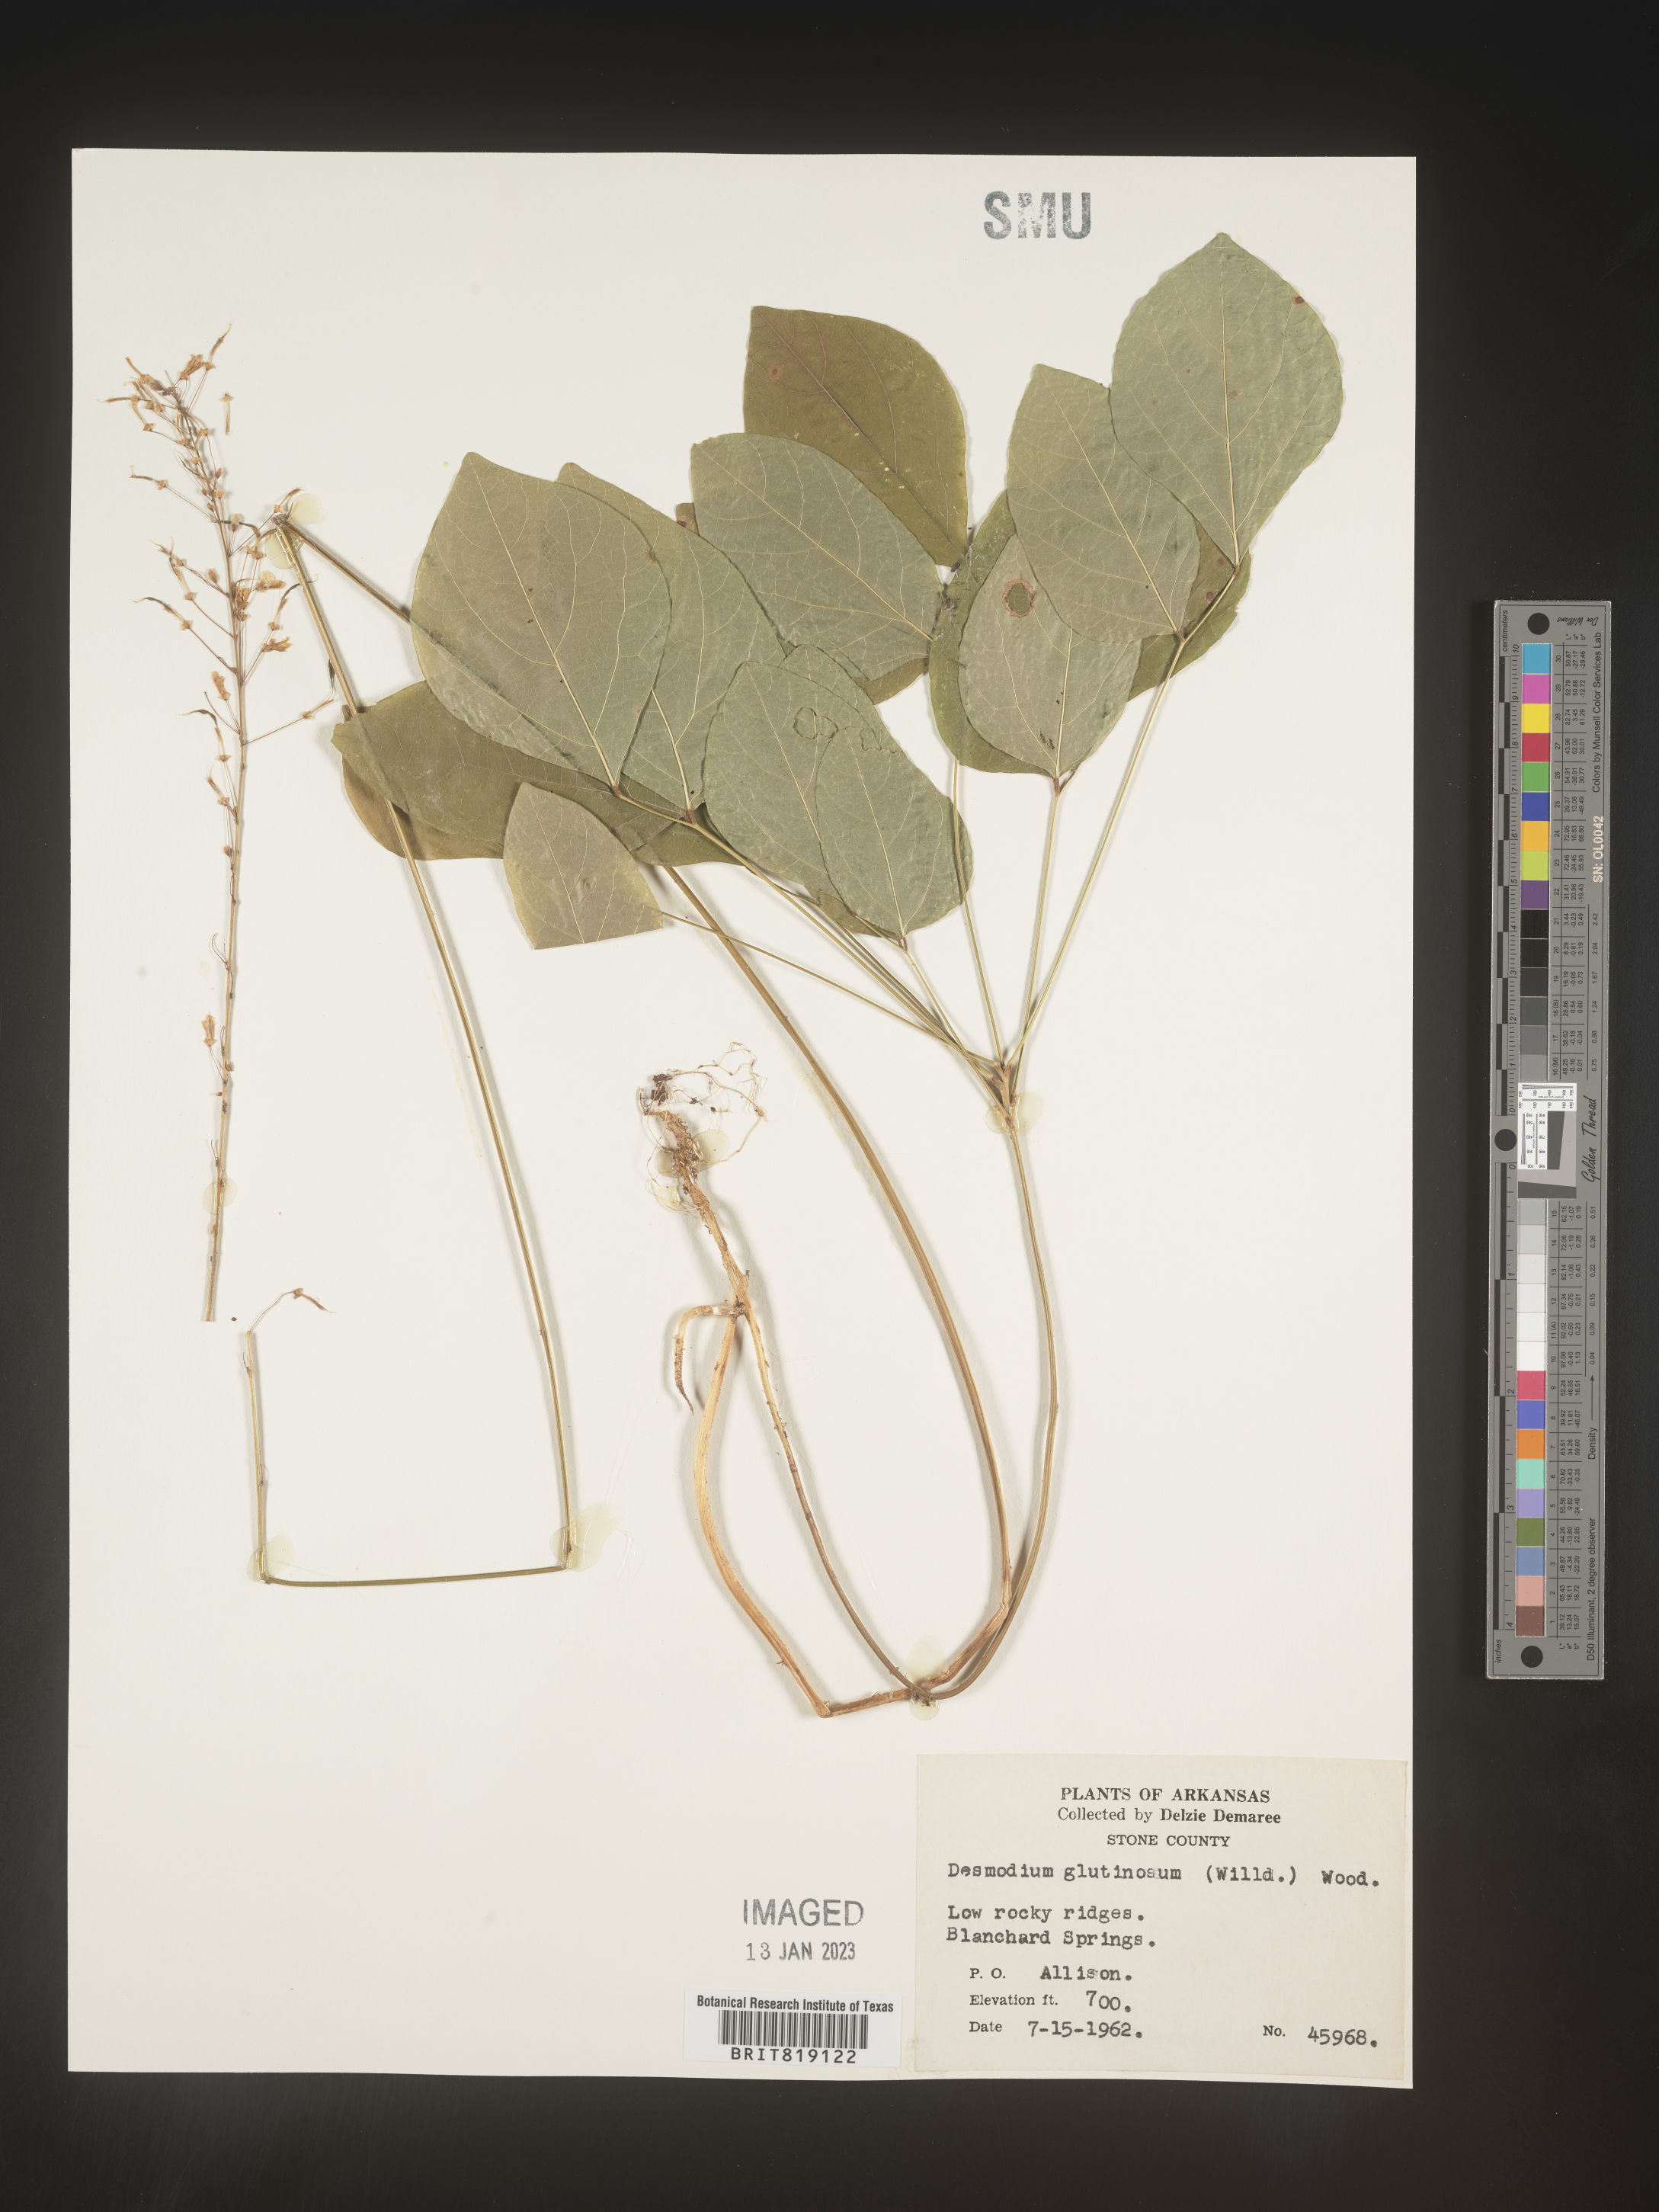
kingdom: Plantae
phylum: Tracheophyta
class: Magnoliopsida
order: Fabales
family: Fabaceae
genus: Hylodesmum
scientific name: Hylodesmum nudiflorum
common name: Bare-stemmed tick-trefoil
